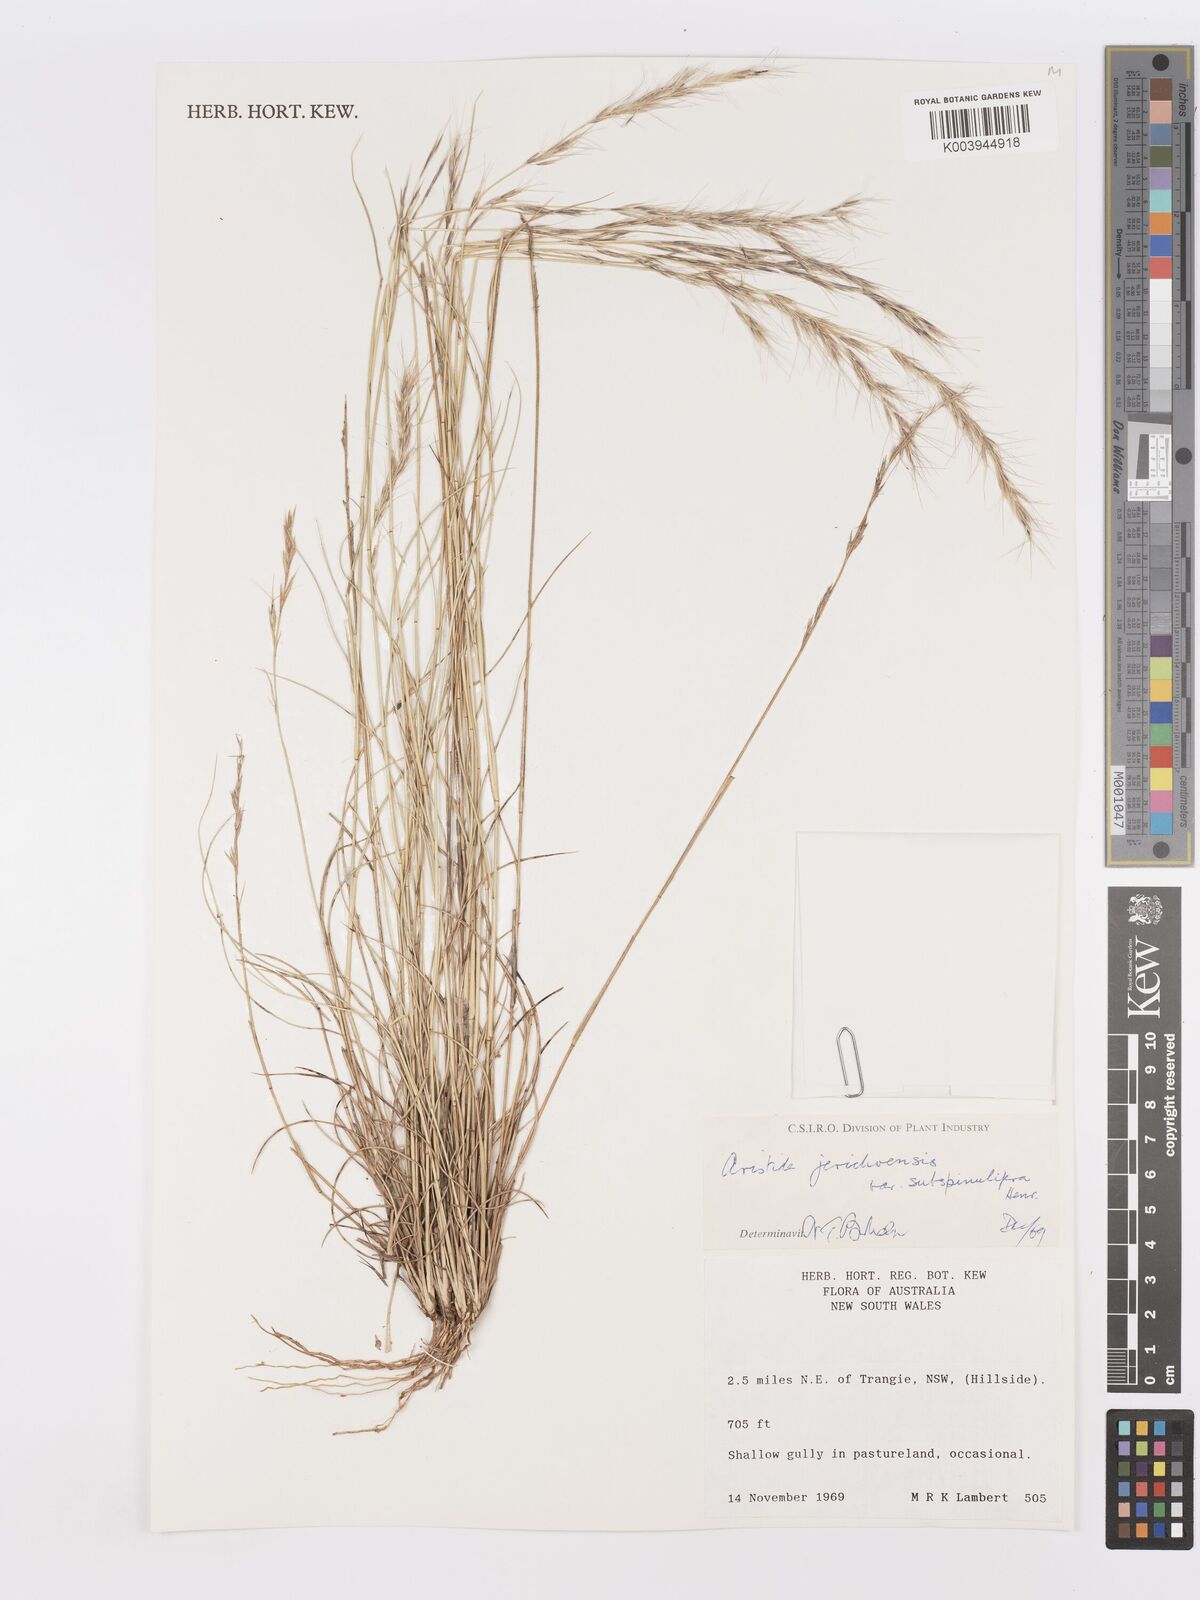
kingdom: Plantae
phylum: Tracheophyta
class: Liliopsida
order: Poales
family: Poaceae
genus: Aristida
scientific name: Aristida jerichoensis
